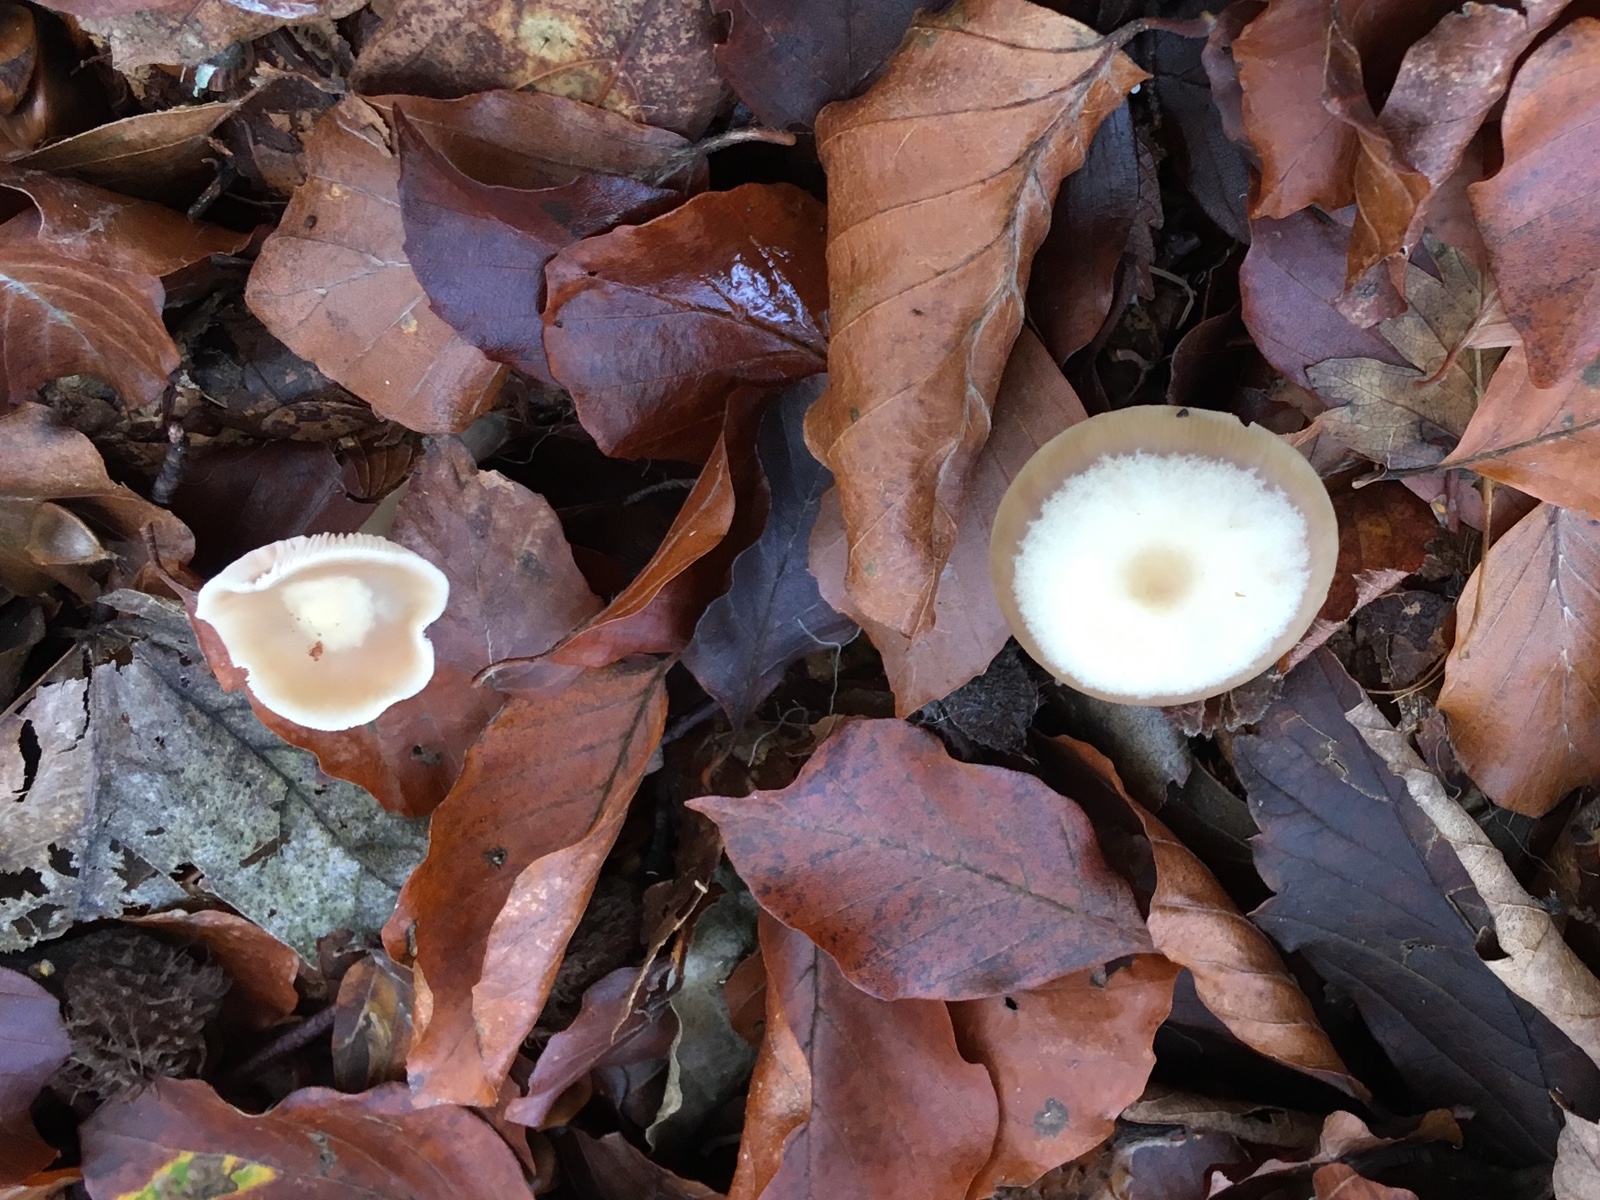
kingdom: Fungi
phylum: Basidiomycota
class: Agaricomycetes
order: Agaricales
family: Omphalotaceae
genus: Rhodocollybia
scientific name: Rhodocollybia asema
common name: horngrå fladhat
